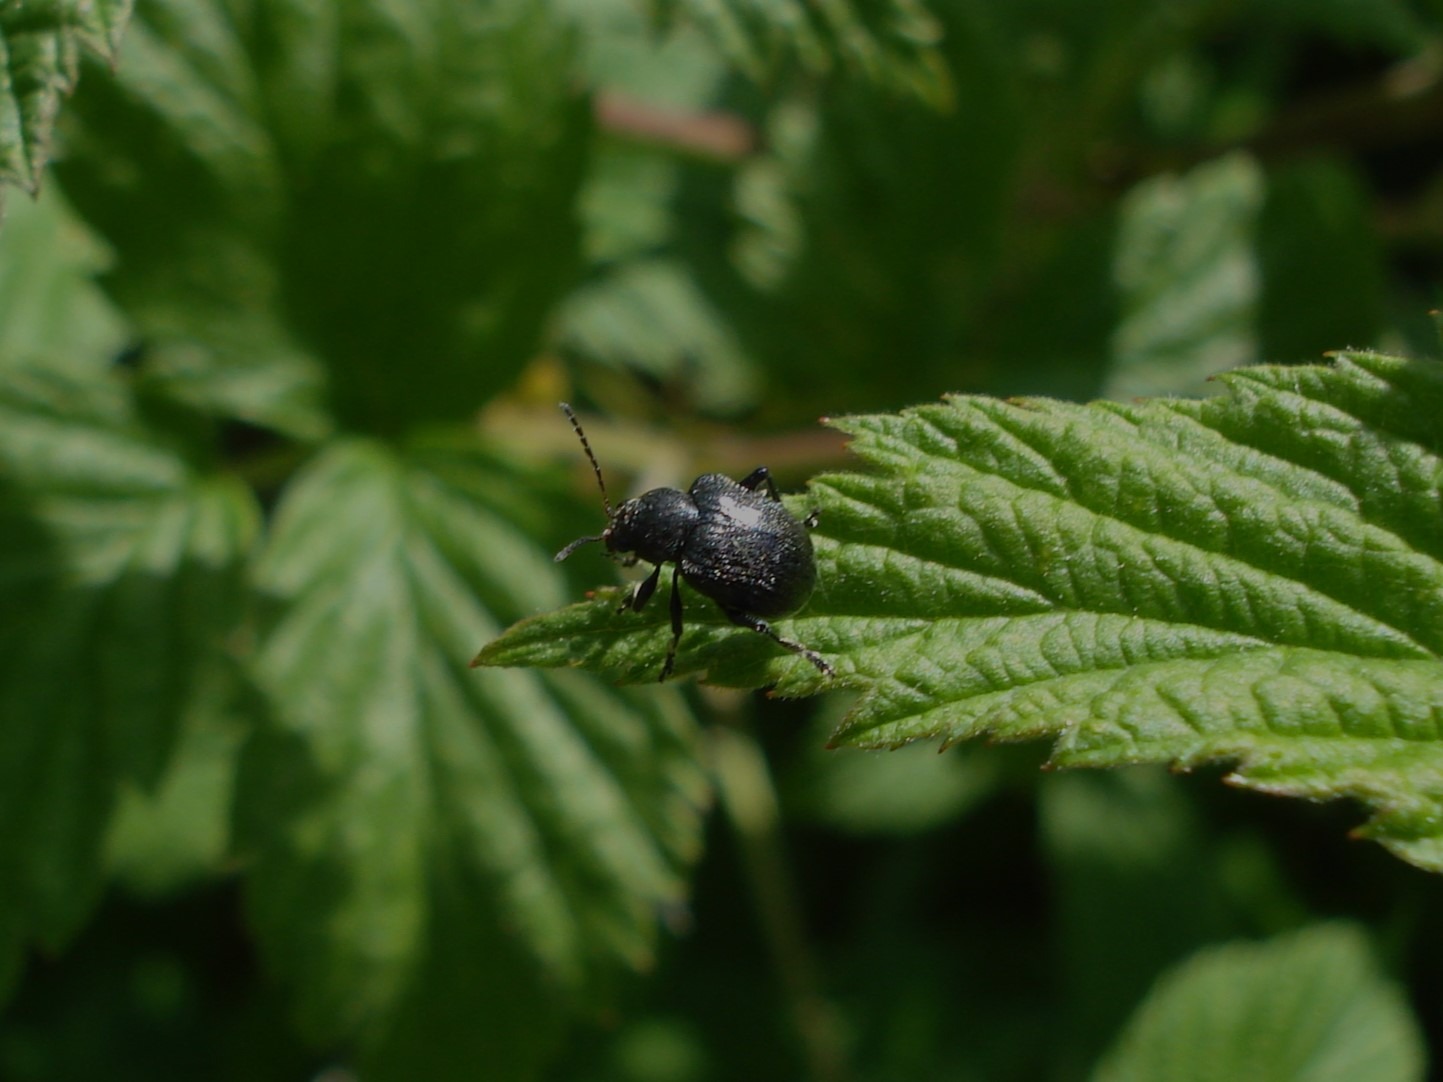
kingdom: Animalia
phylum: Arthropoda
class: Insecta
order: Coleoptera
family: Chrysomelidae
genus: Bromius
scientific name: Bromius obscurus
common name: Gederamsbille
